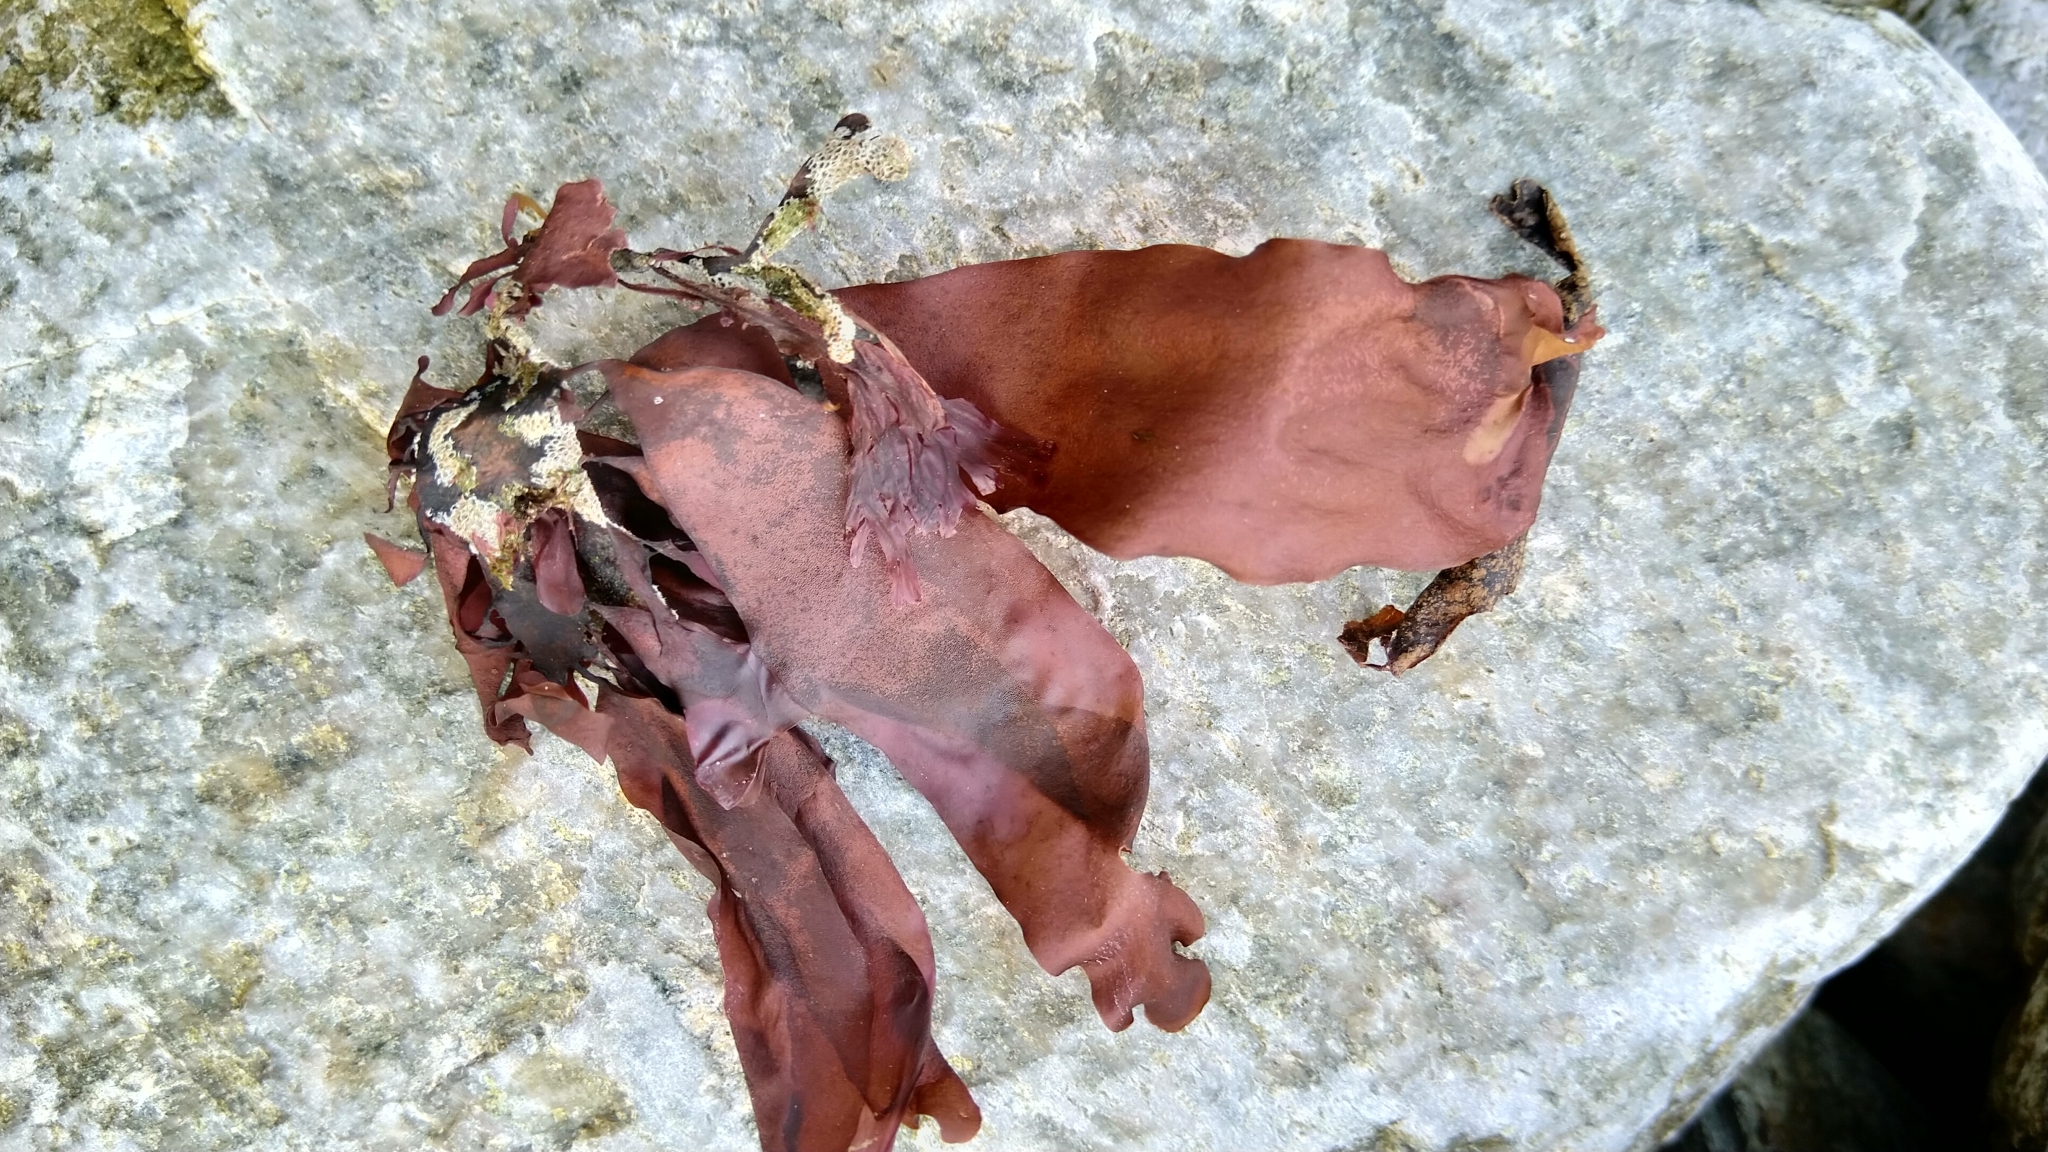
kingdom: Plantae
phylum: Rhodophyta
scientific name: Rhodophyta
